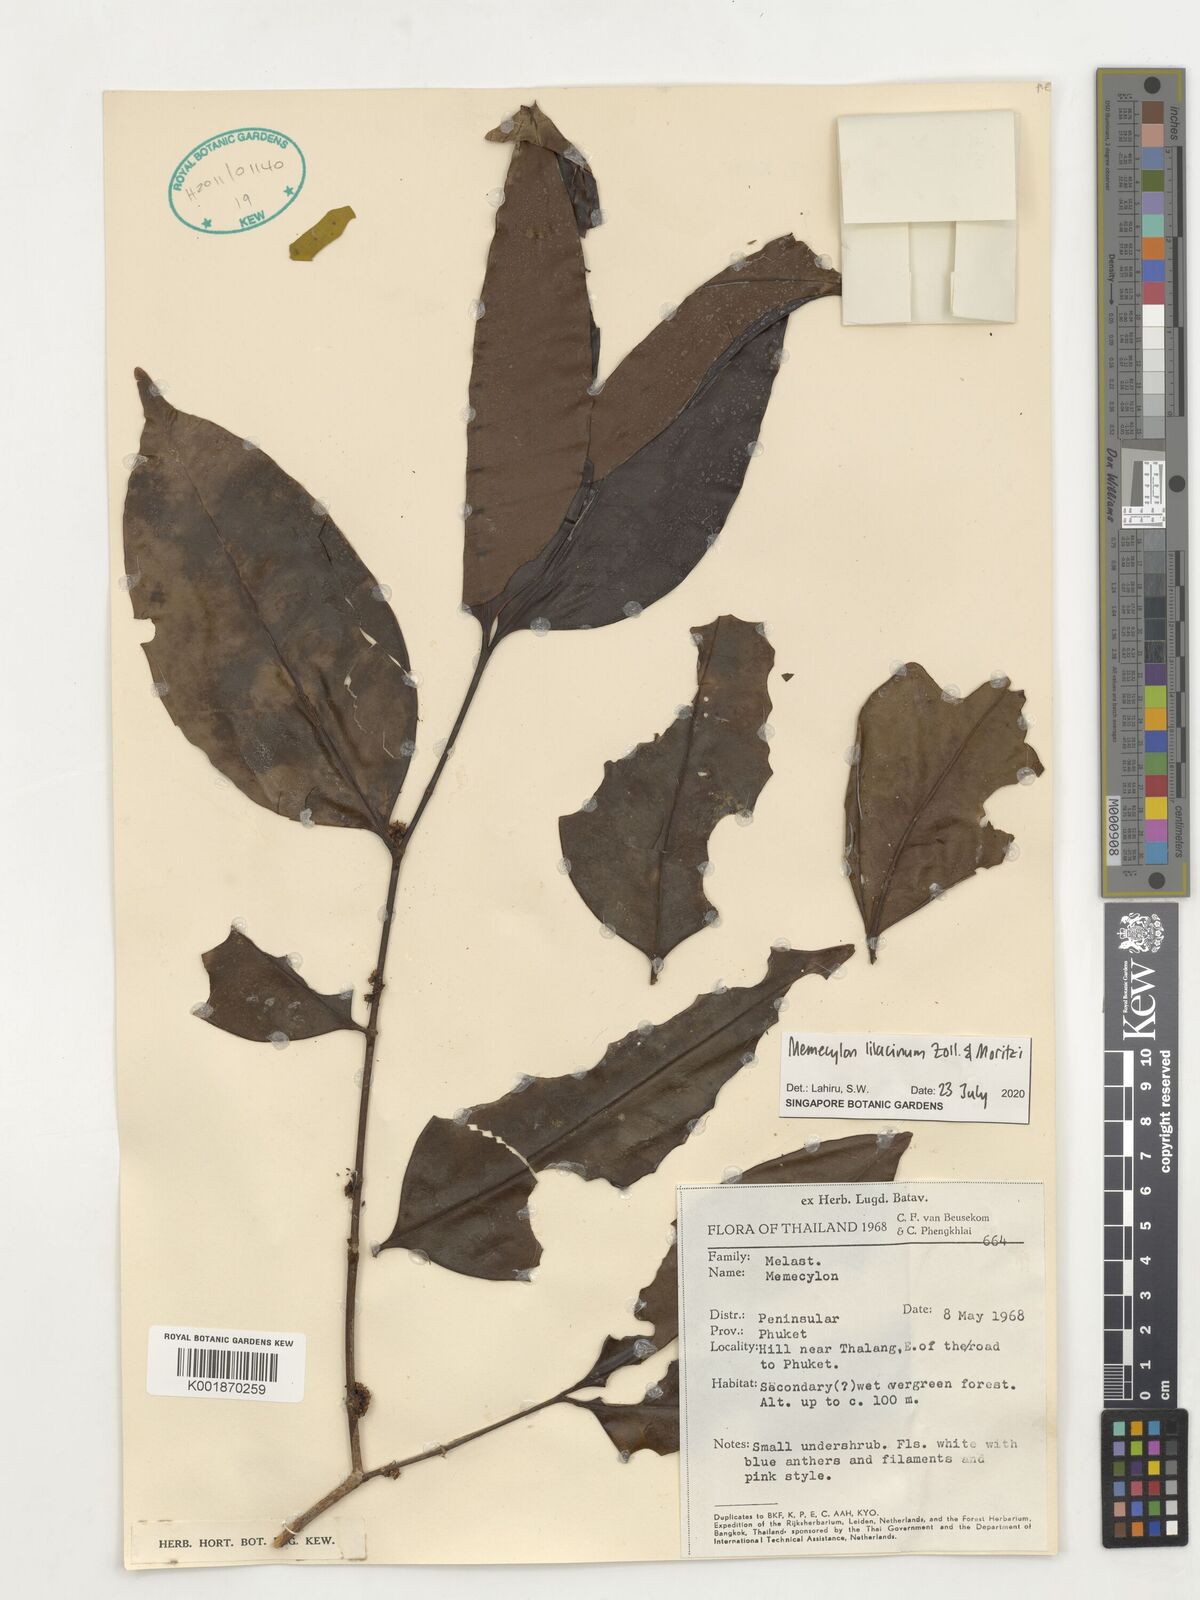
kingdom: Plantae
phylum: Tracheophyta
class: Magnoliopsida
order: Myrtales
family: Melastomataceae
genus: Memecylon
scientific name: Memecylon lilacinum
